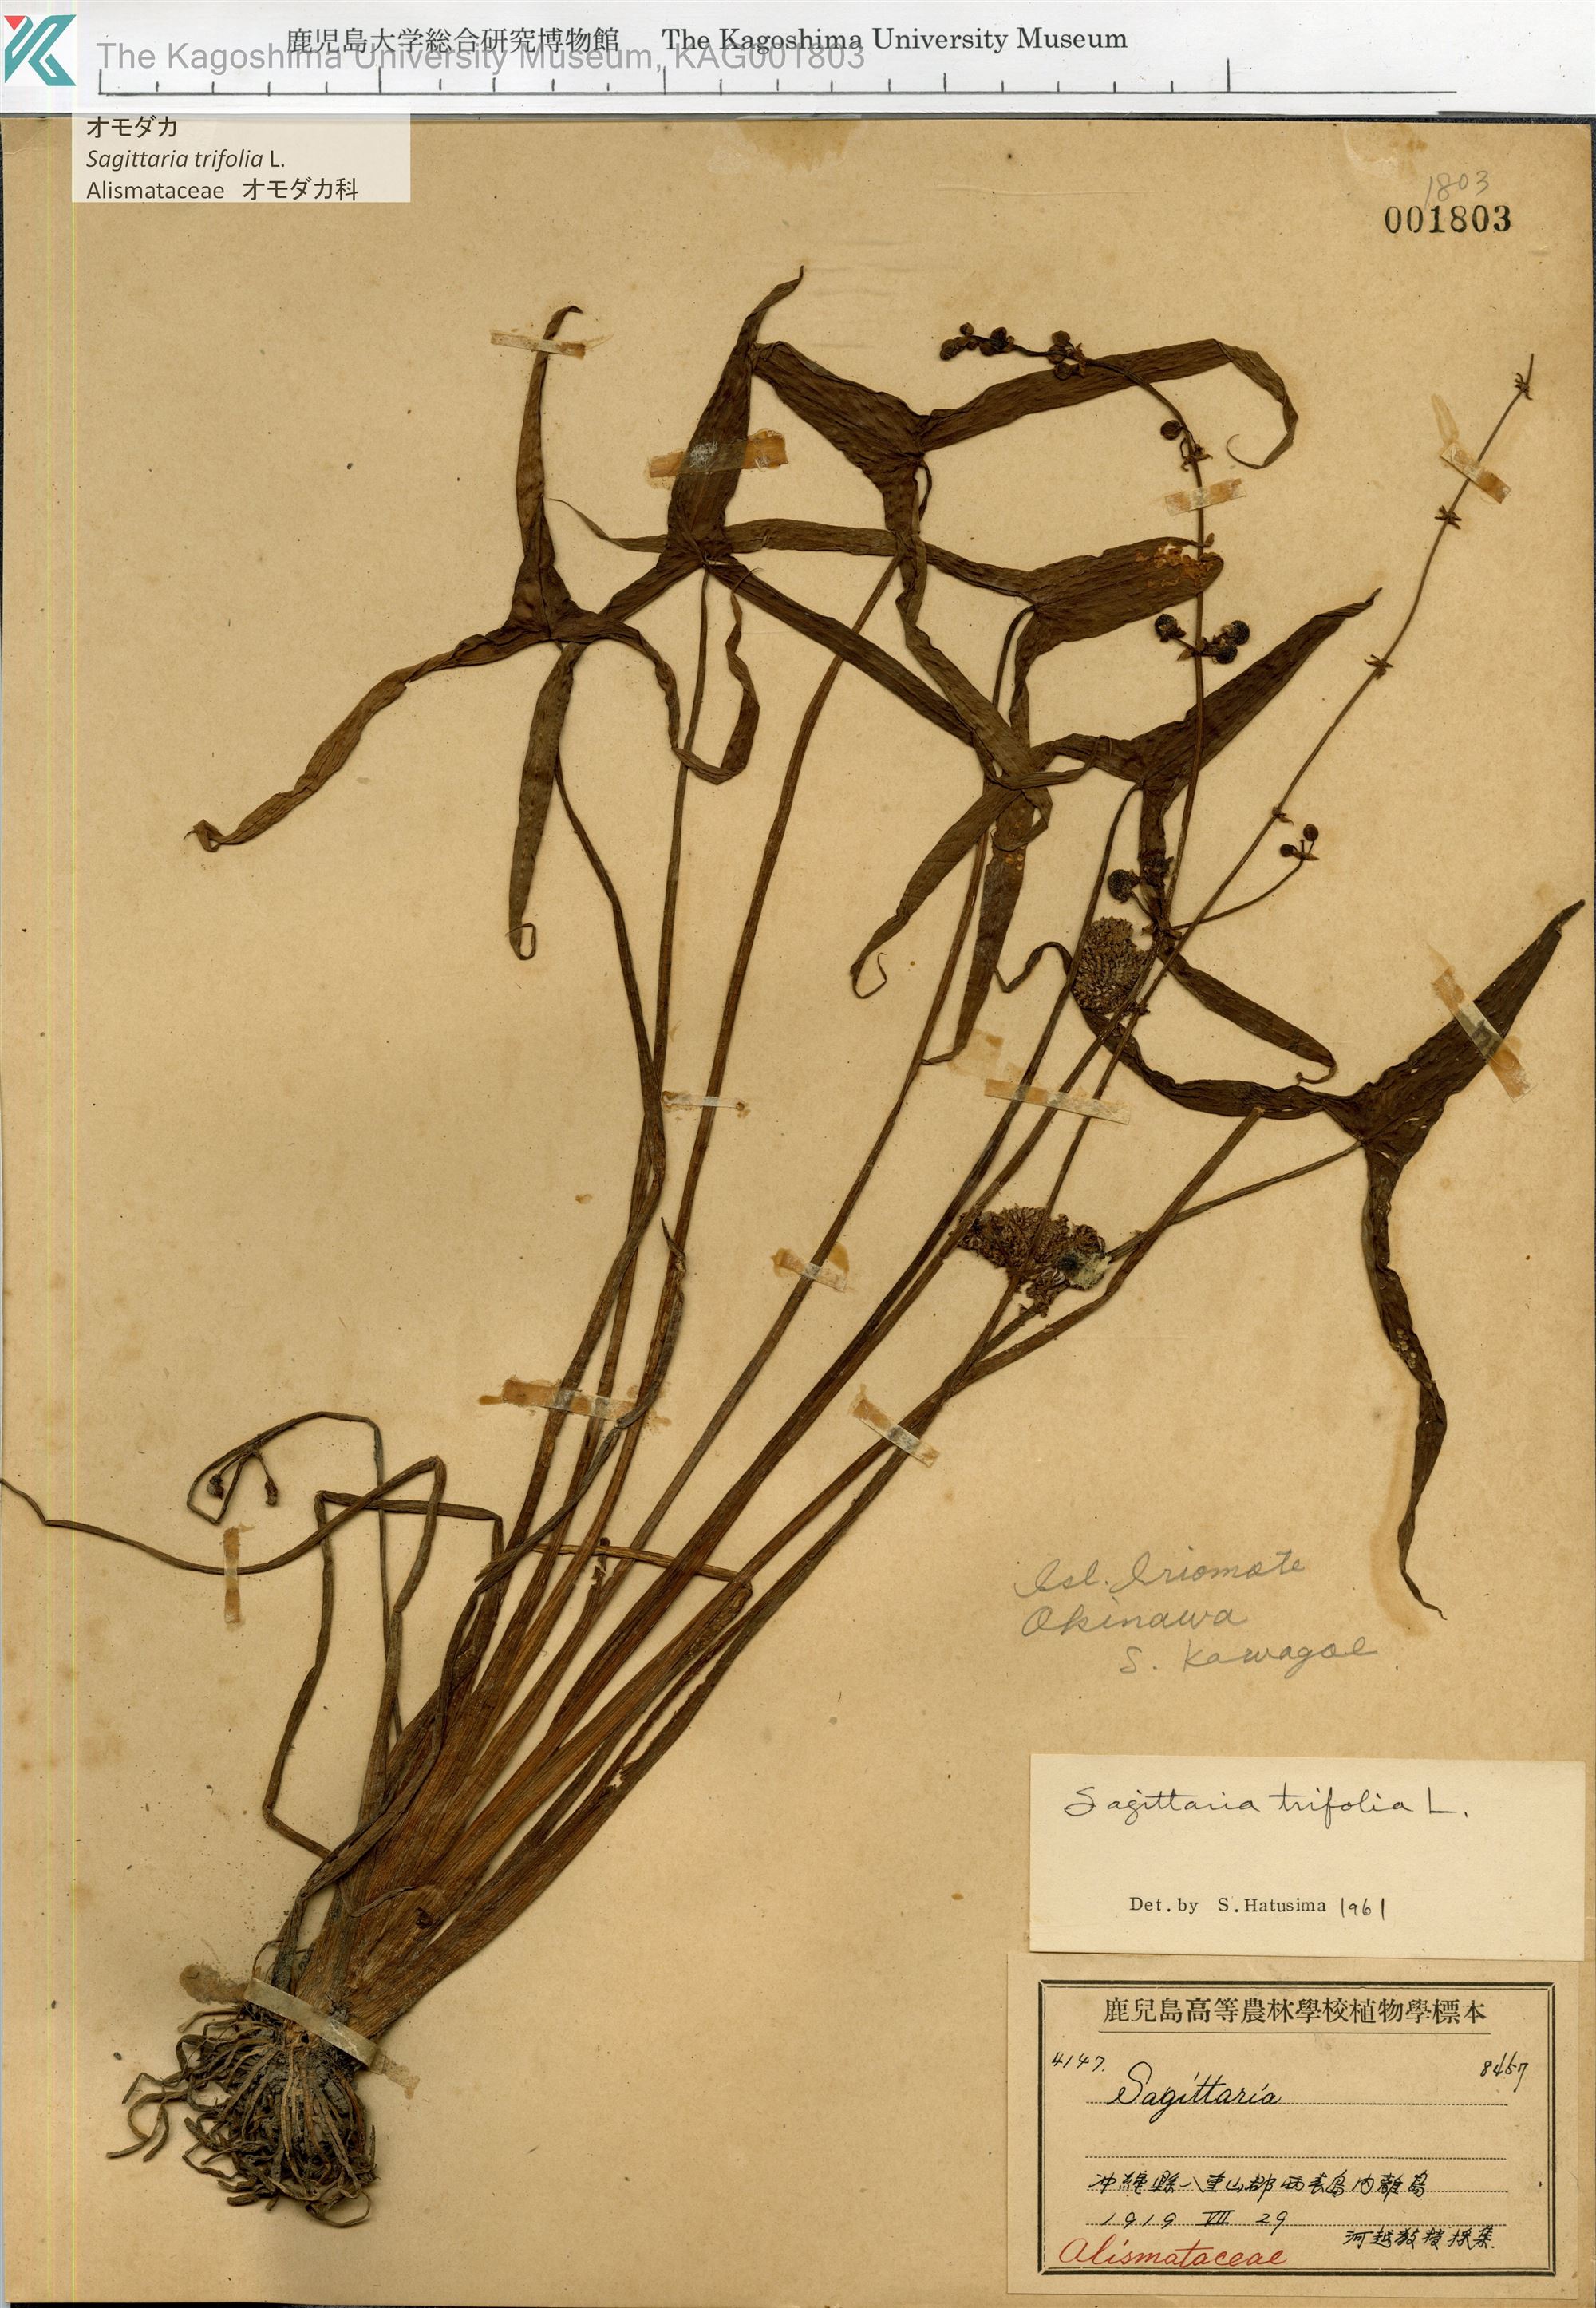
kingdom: Plantae
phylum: Tracheophyta
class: Liliopsida
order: Alismatales
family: Alismataceae
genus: Sagittaria
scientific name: Sagittaria trifolia
